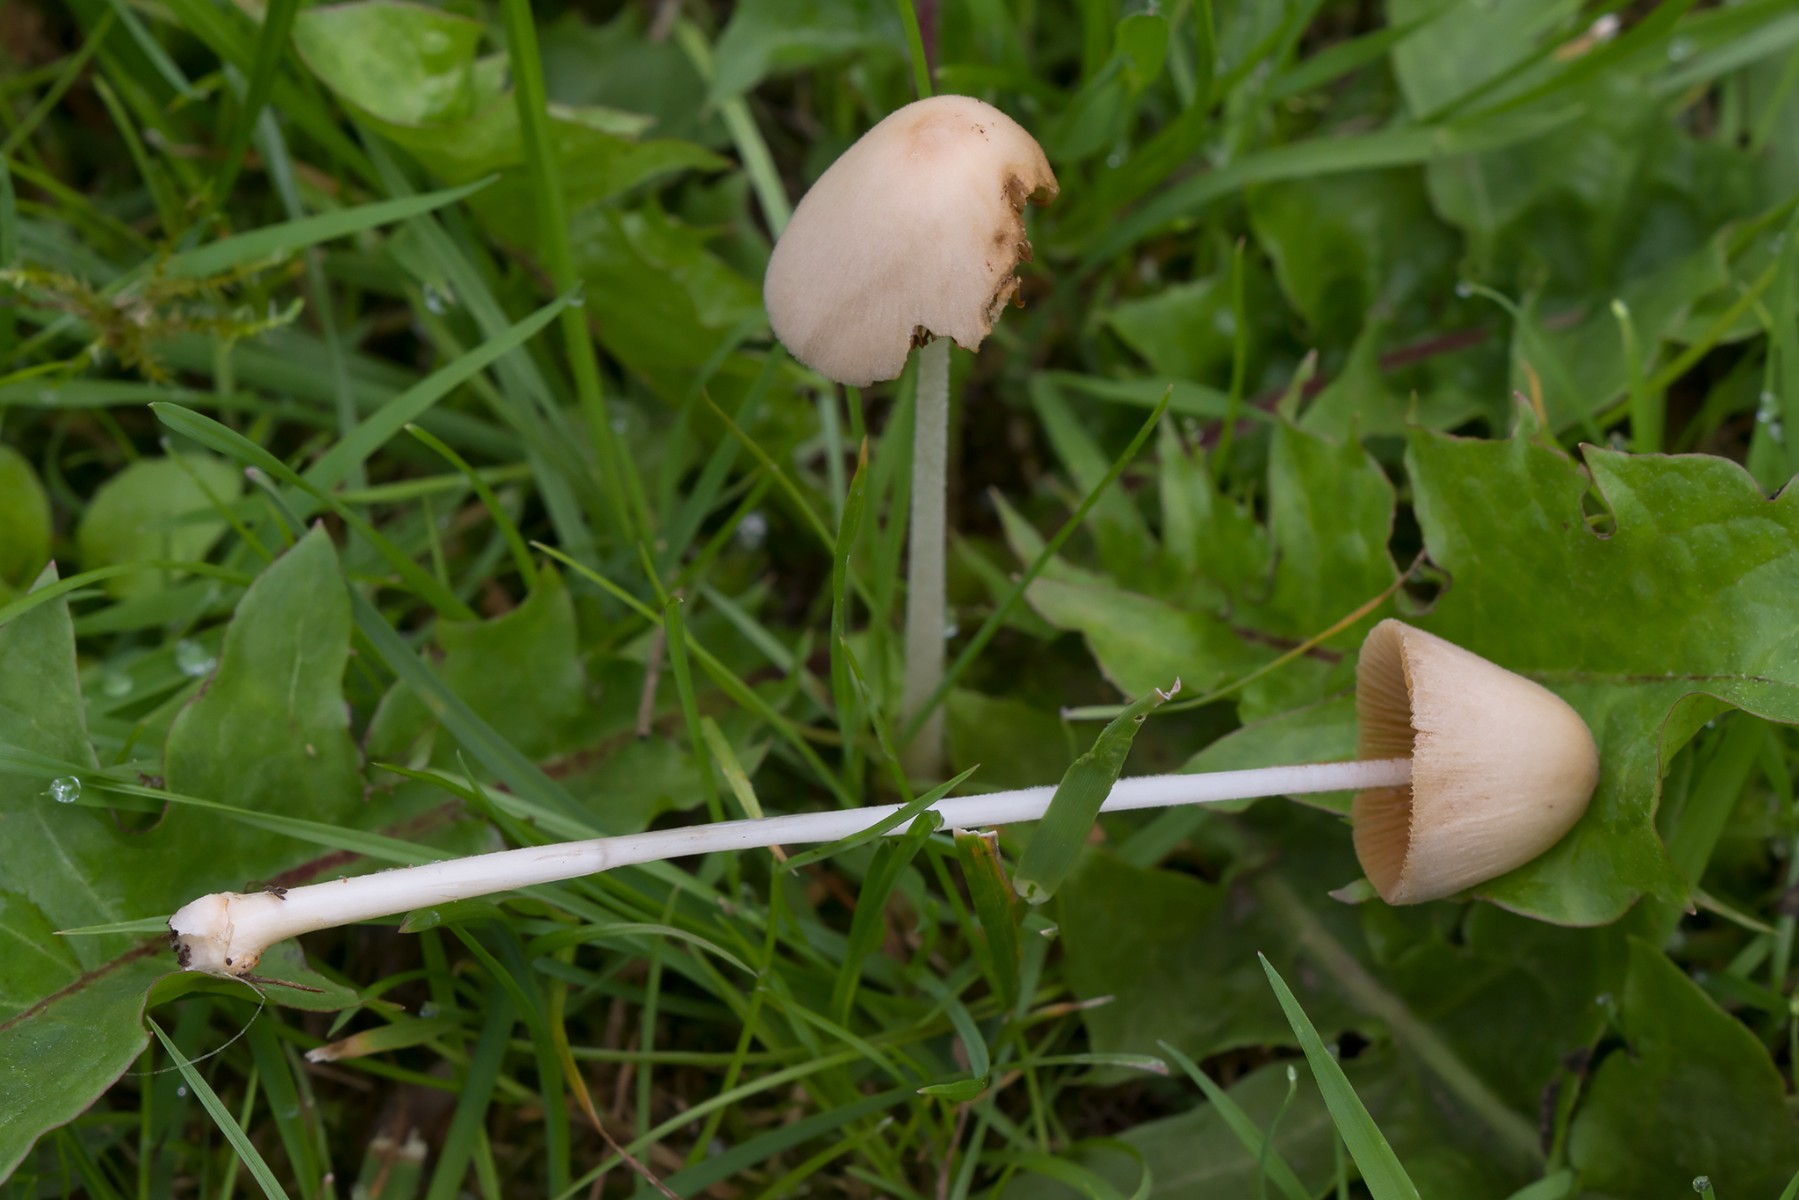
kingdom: Fungi
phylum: Basidiomycota
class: Agaricomycetes
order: Agaricales
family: Bolbitiaceae
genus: Conocybe
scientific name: Conocybe apala
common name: mælkehvid keglehat
